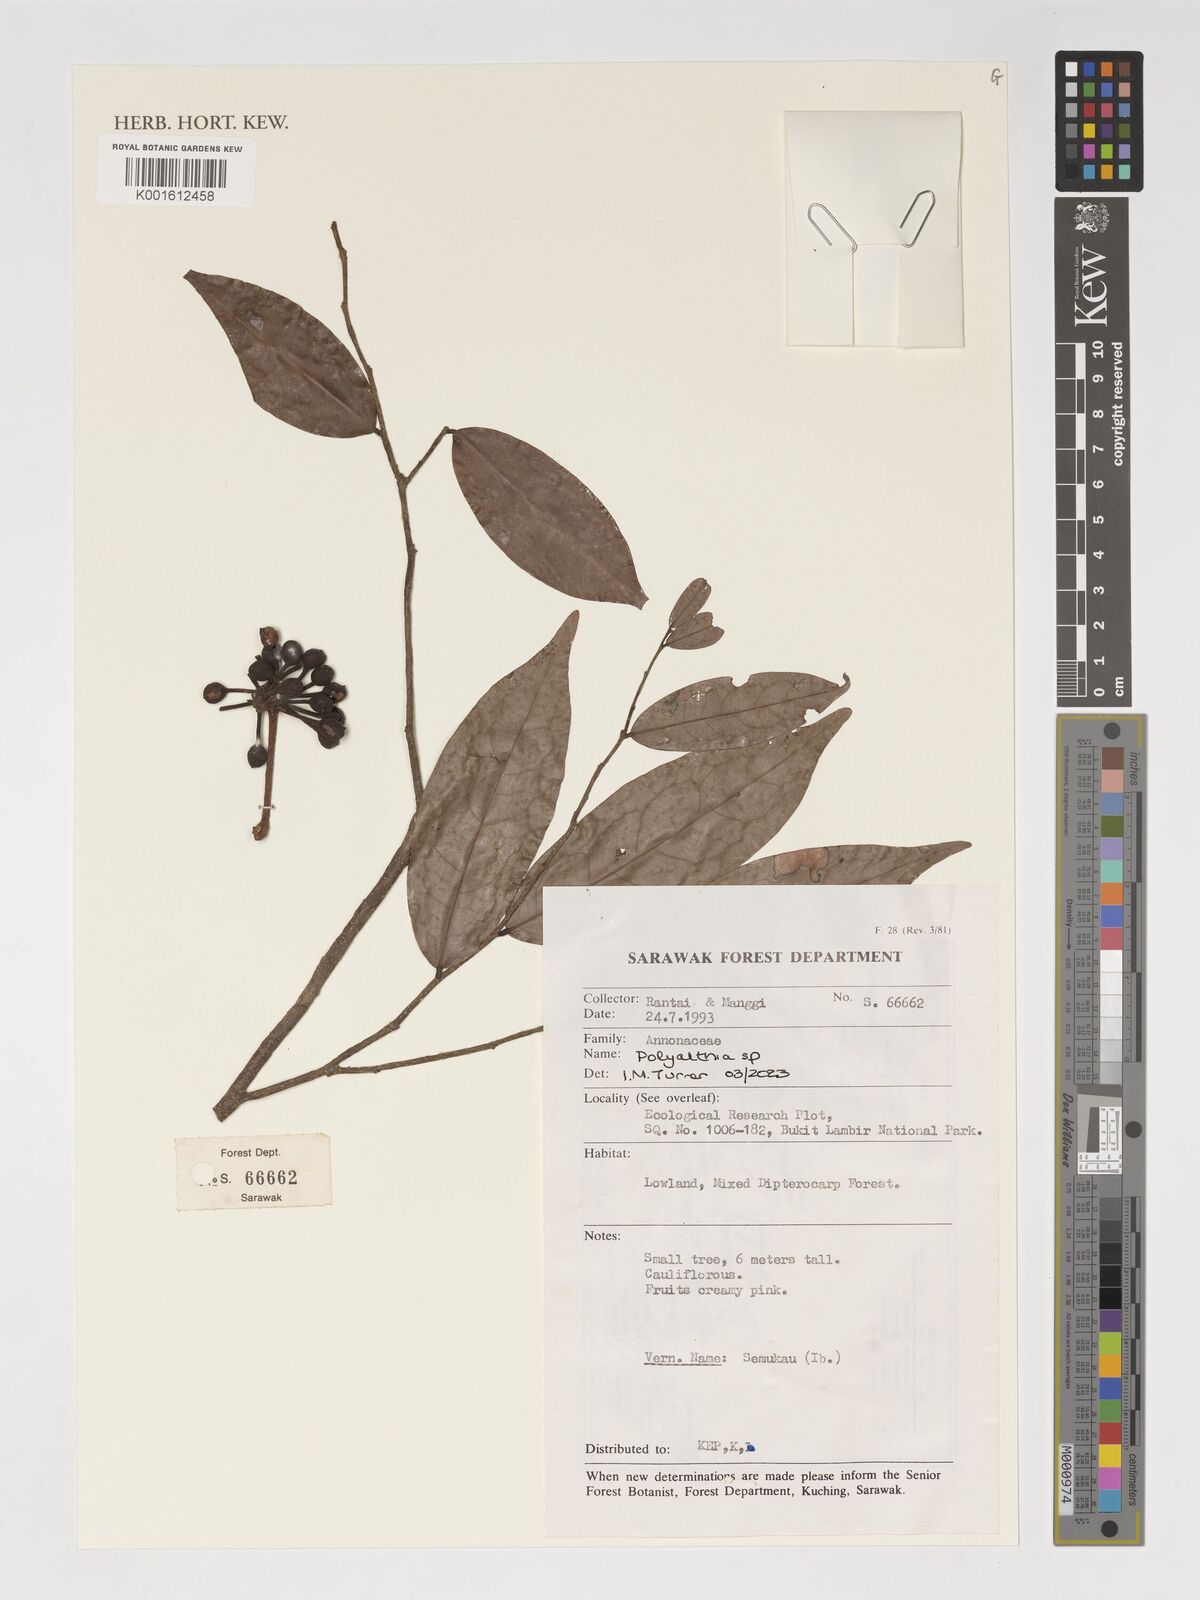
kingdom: Plantae
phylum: Tracheophyta
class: Magnoliopsida
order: Magnoliales
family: Annonaceae
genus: Polyalthia
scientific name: Polyalthia
